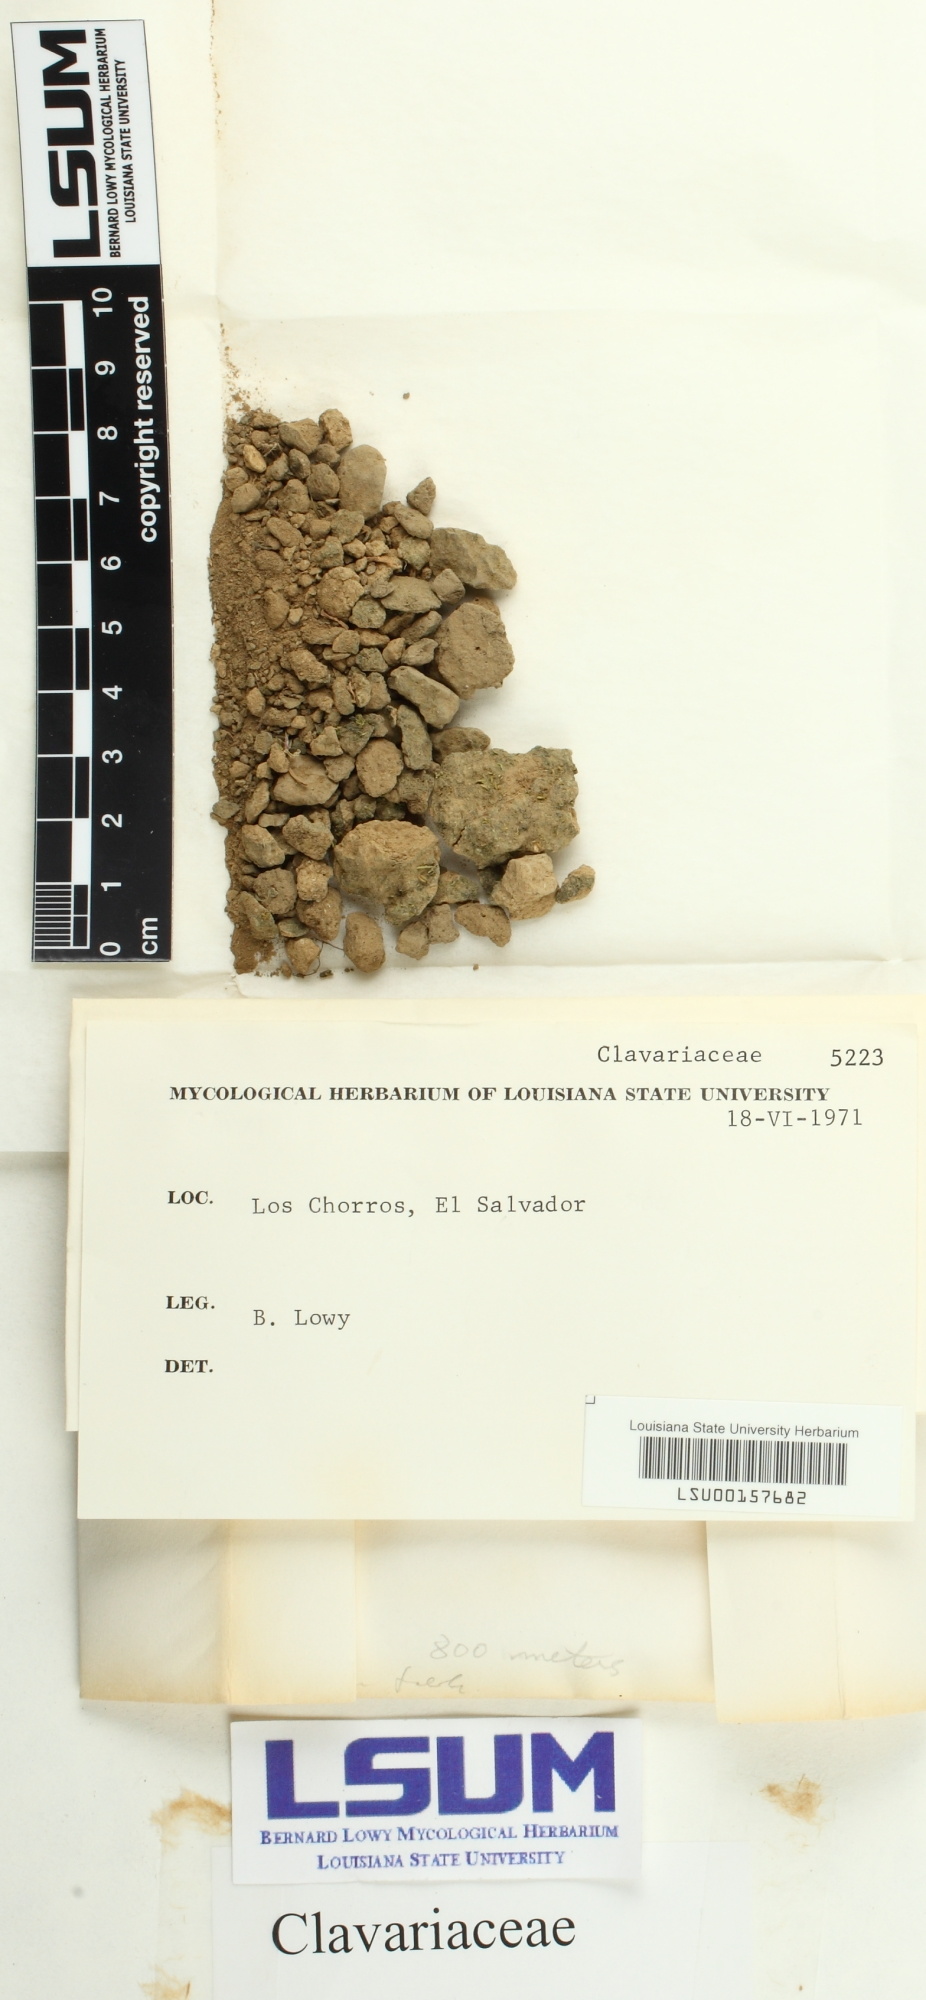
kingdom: Fungi
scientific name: Fungi
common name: Fungi
